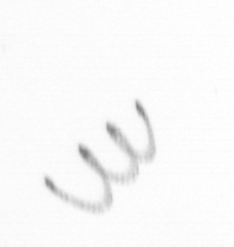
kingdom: Chromista
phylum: Ochrophyta
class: Bacillariophyceae
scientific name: Bacillariophyceae
